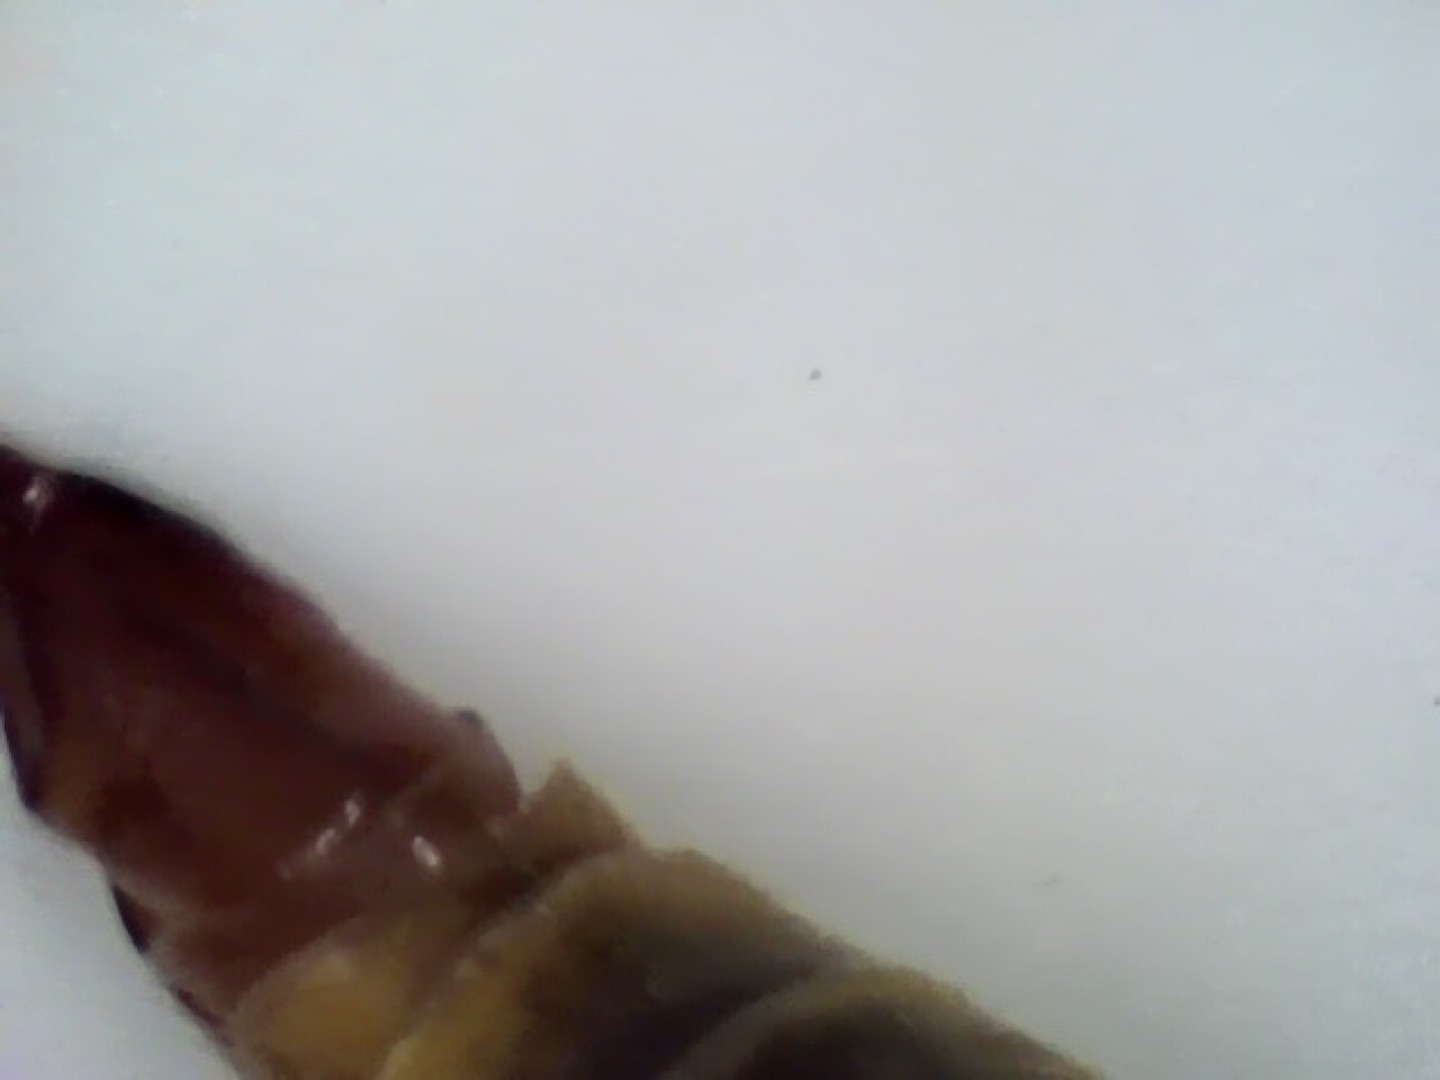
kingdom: Animalia
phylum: Arthropoda
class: Insecta
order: Diptera
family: Tipulidae
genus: Nephrotoma
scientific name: Nephrotoma appendiculata
